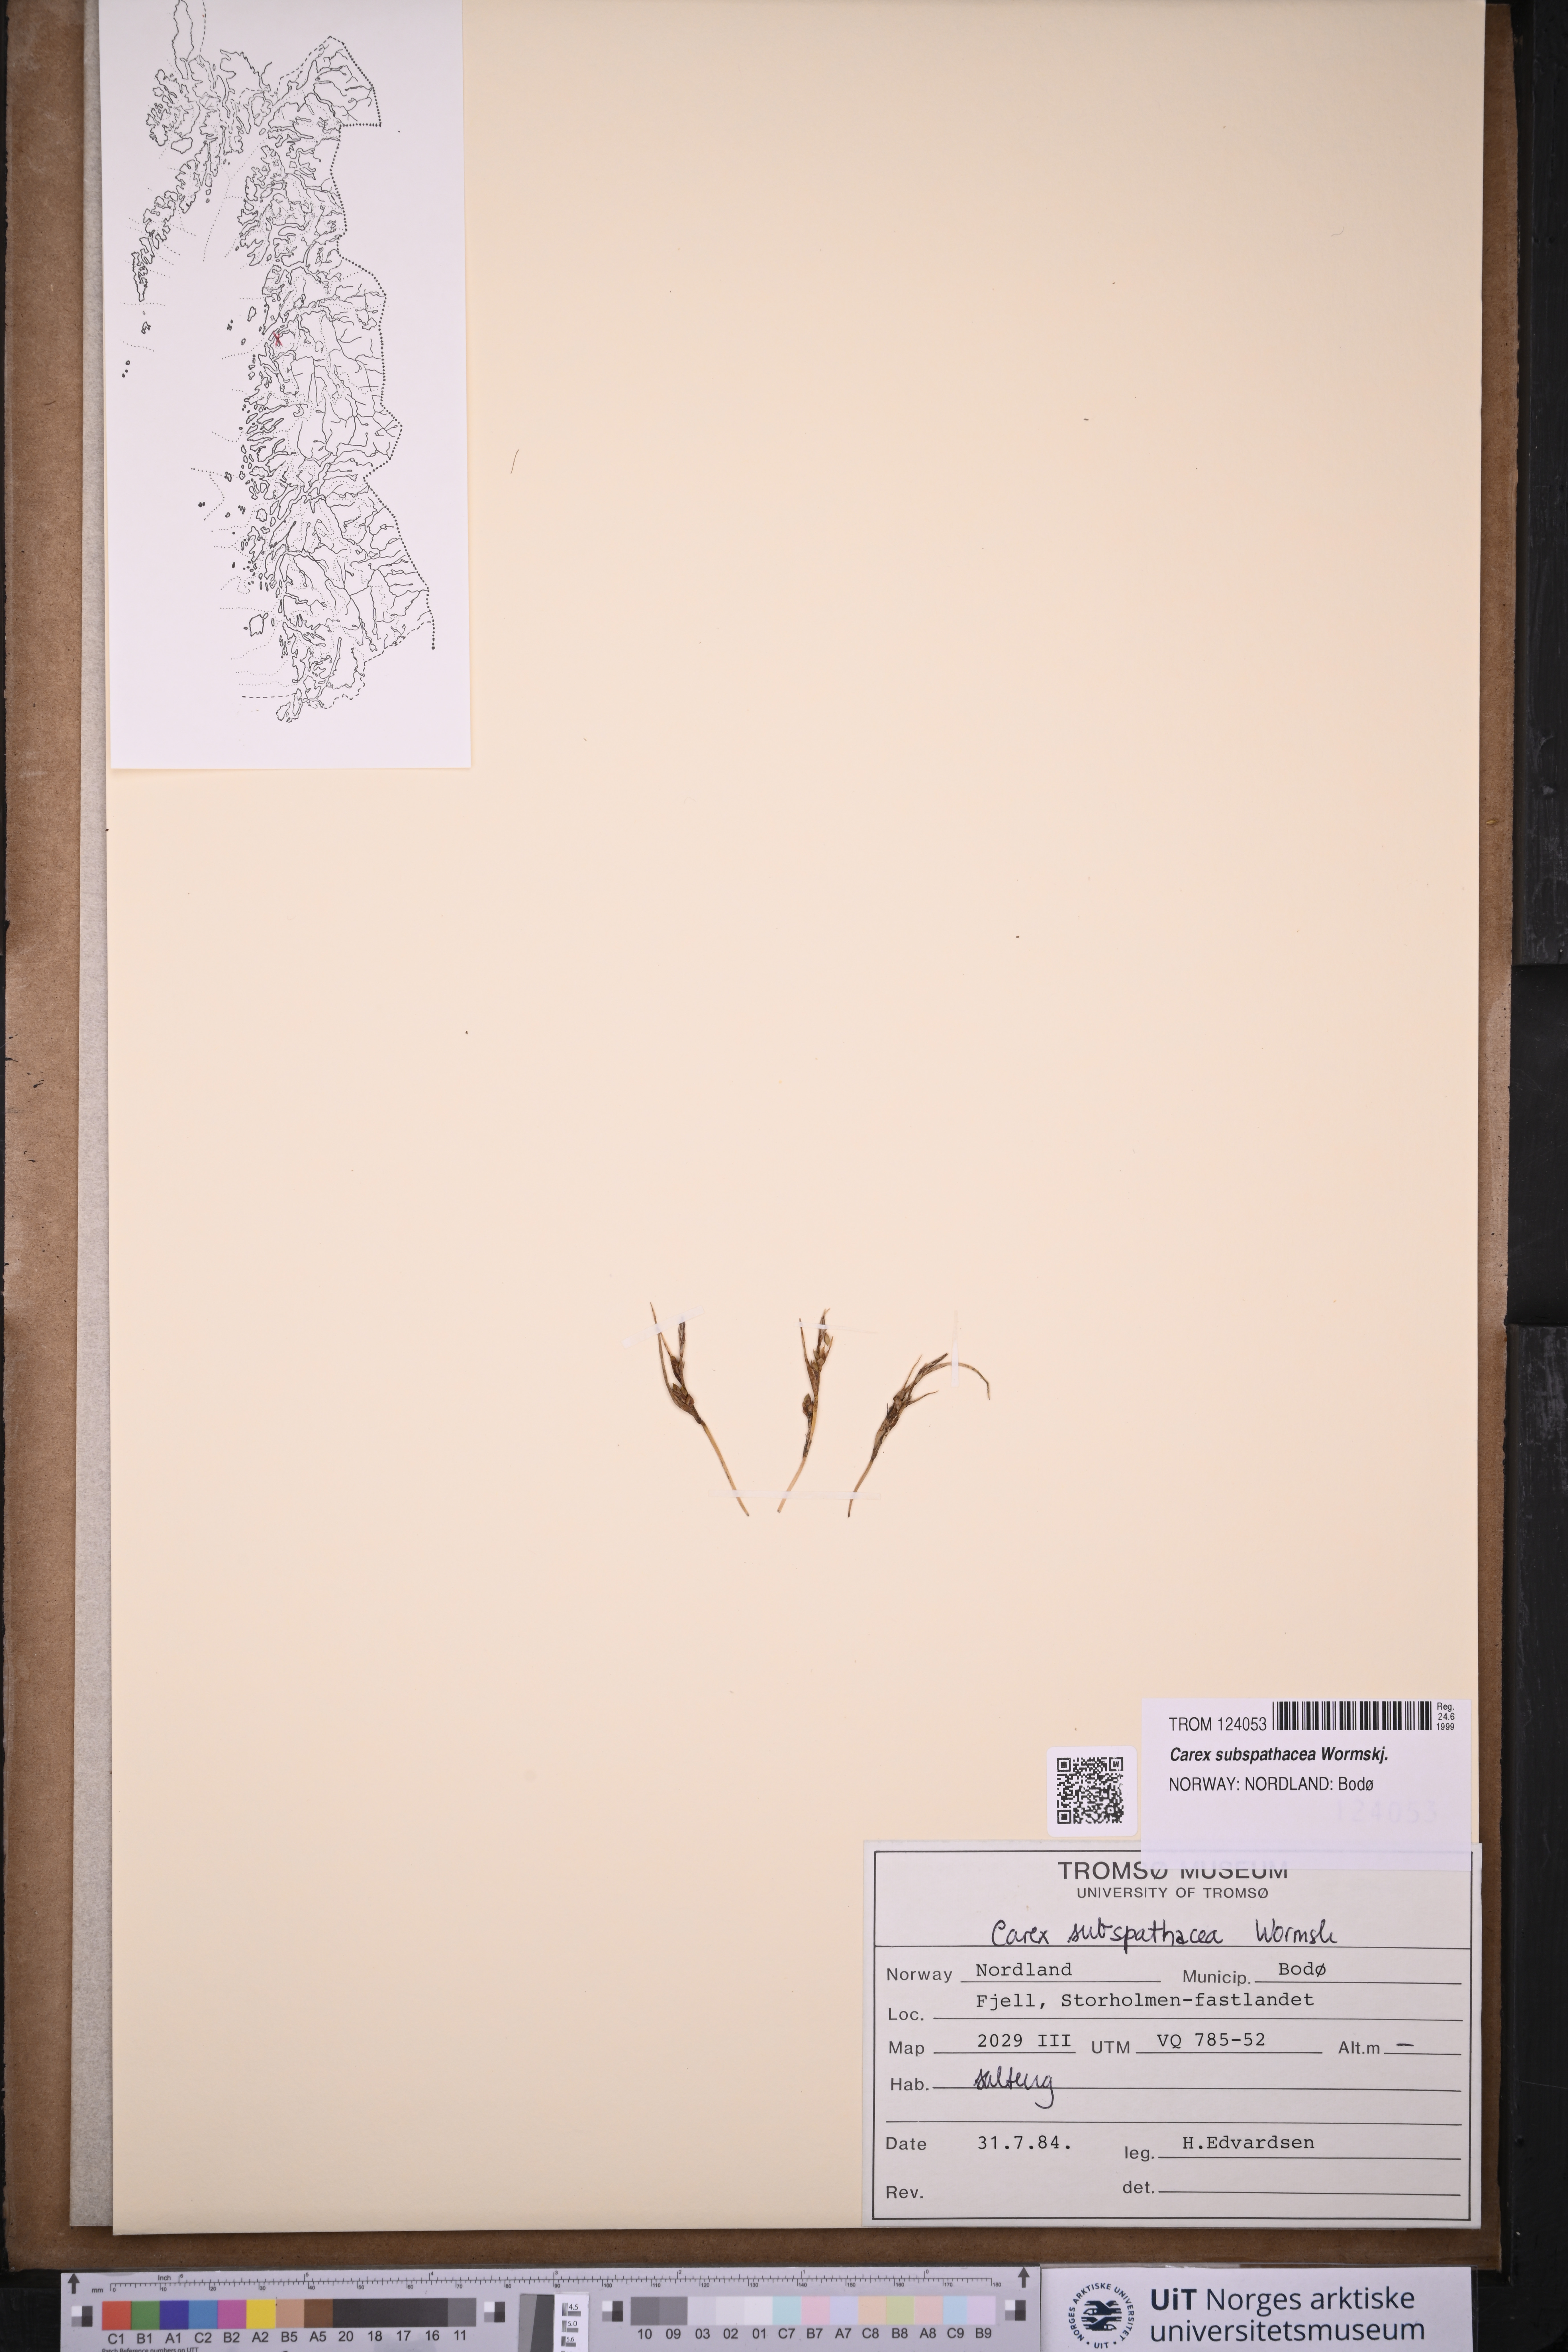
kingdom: Plantae
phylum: Tracheophyta
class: Liliopsida
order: Poales
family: Cyperaceae
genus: Carex
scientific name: Carex subspathacea
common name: Hoppner's sedge
